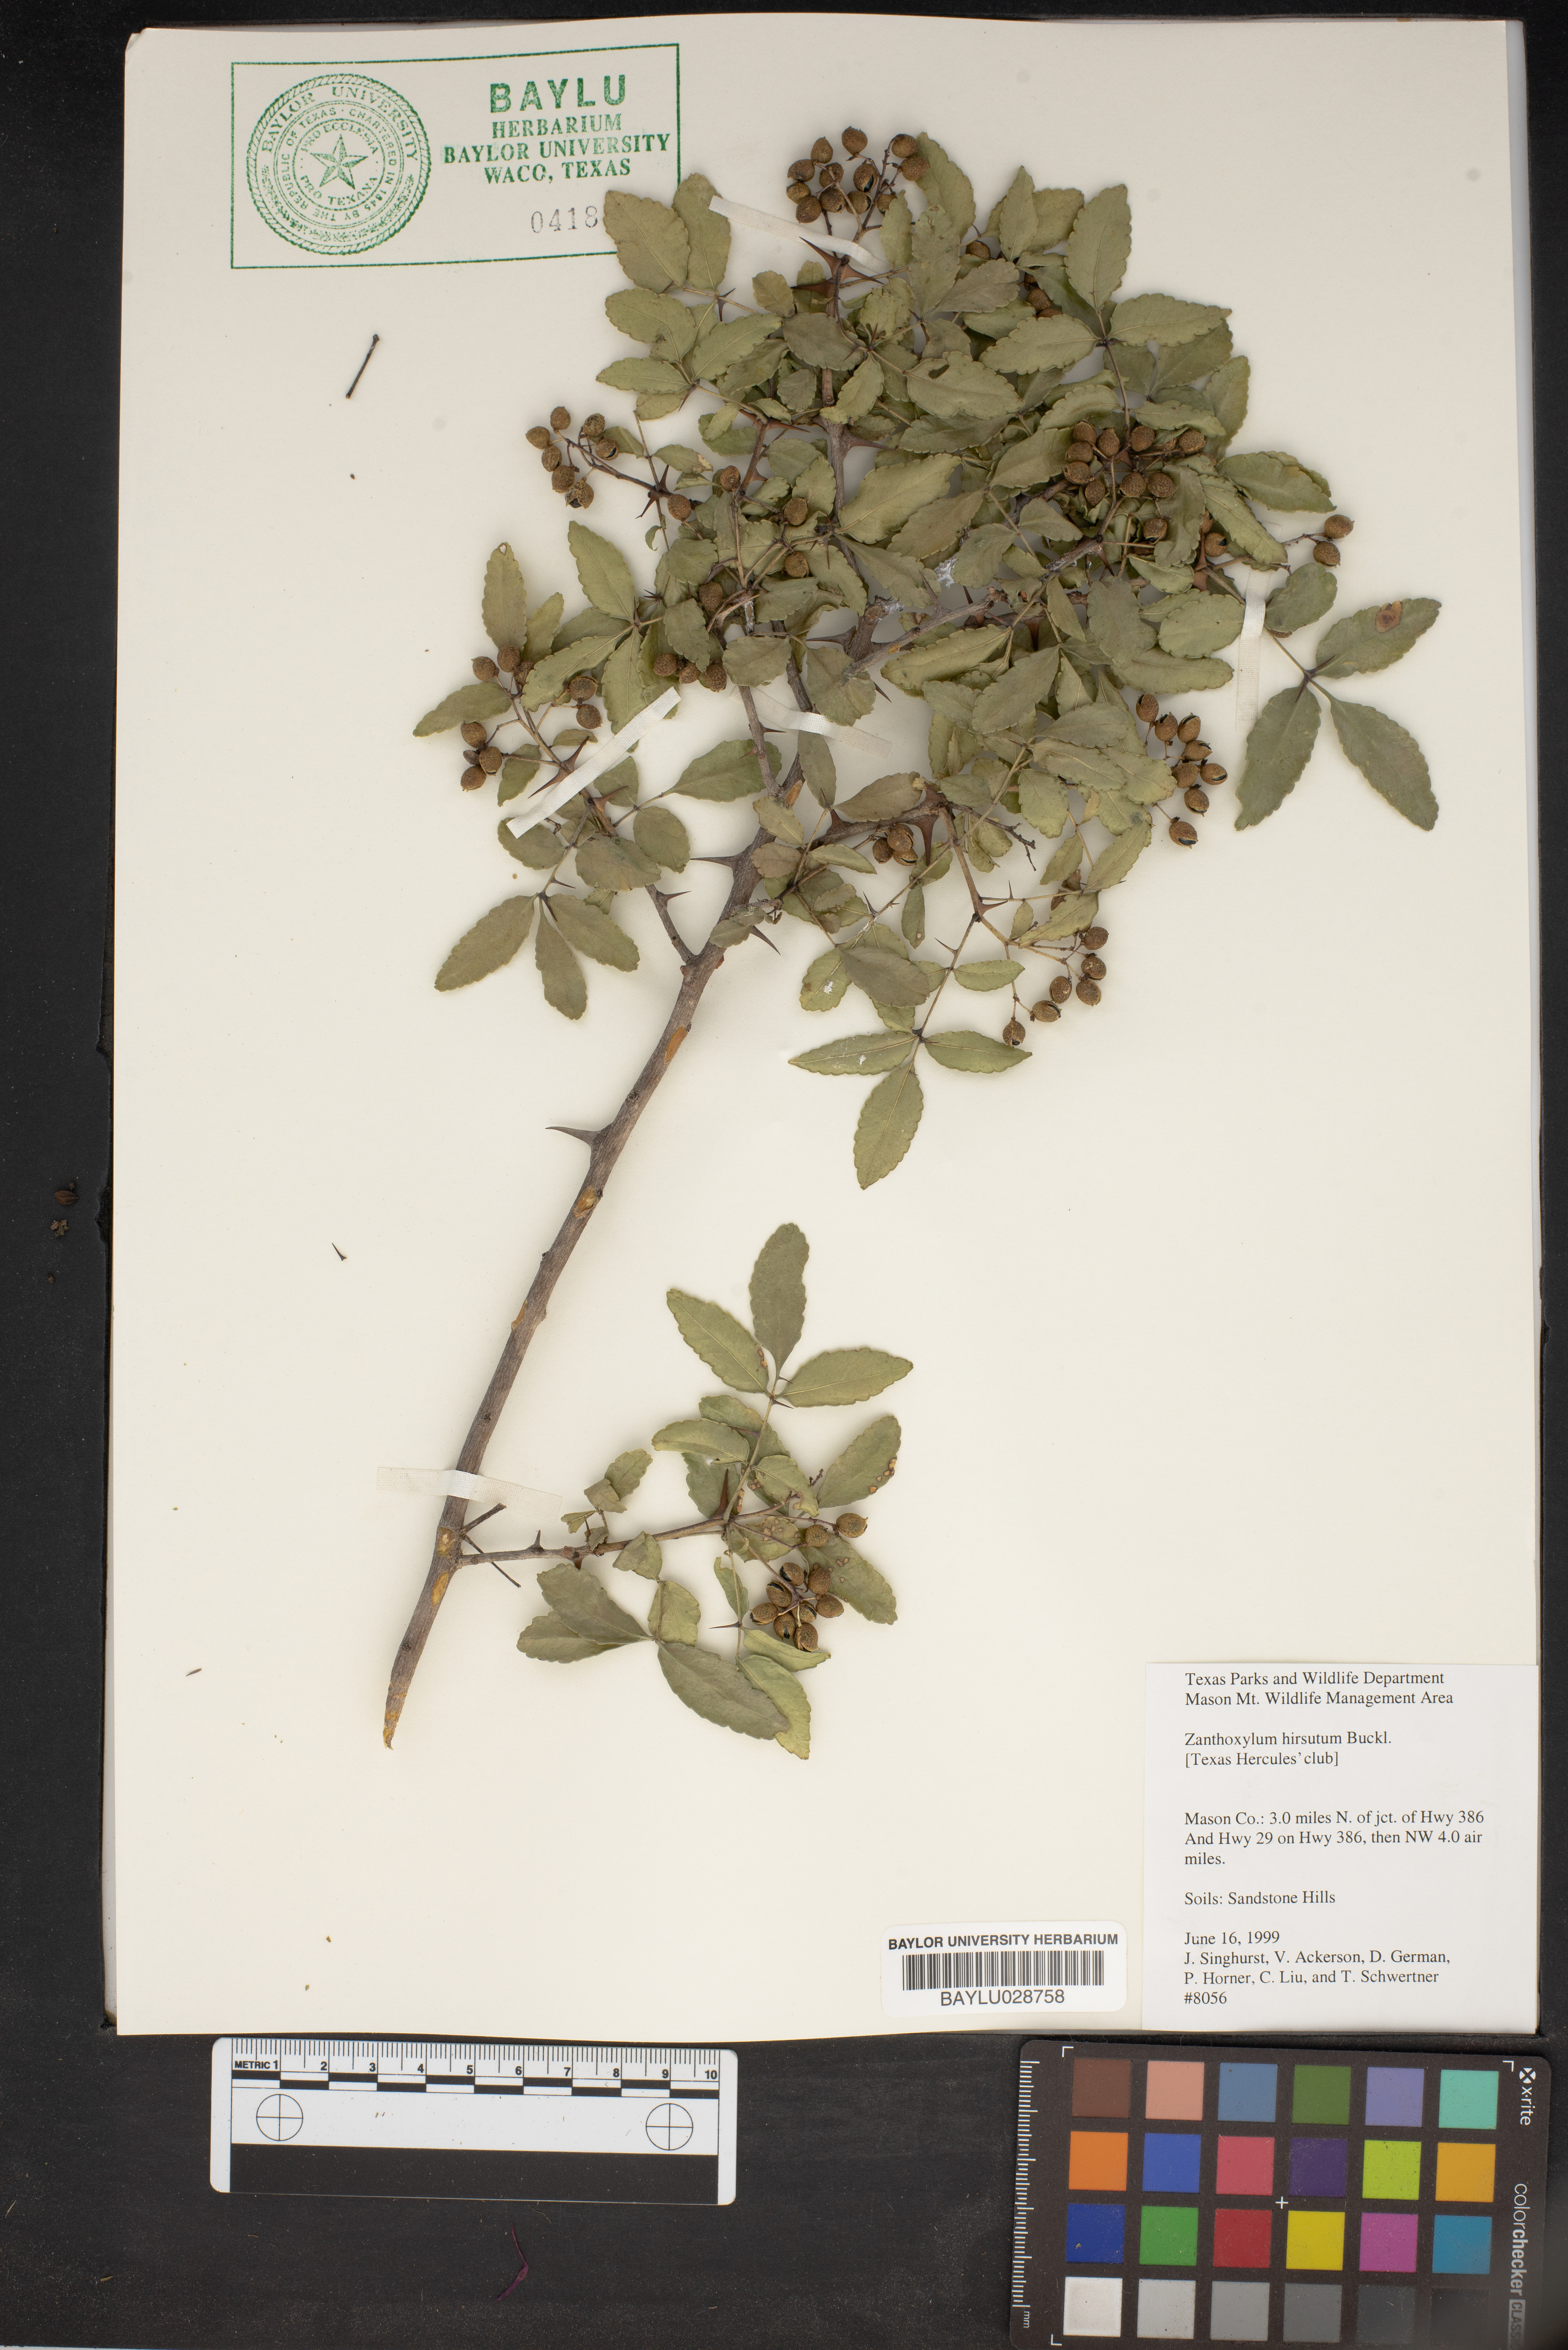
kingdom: Plantae
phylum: Tracheophyta
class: Magnoliopsida
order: Sapindales
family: Rutaceae
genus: Zanthoxylum
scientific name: Zanthoxylum clava-herculis
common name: Hercules'-club
